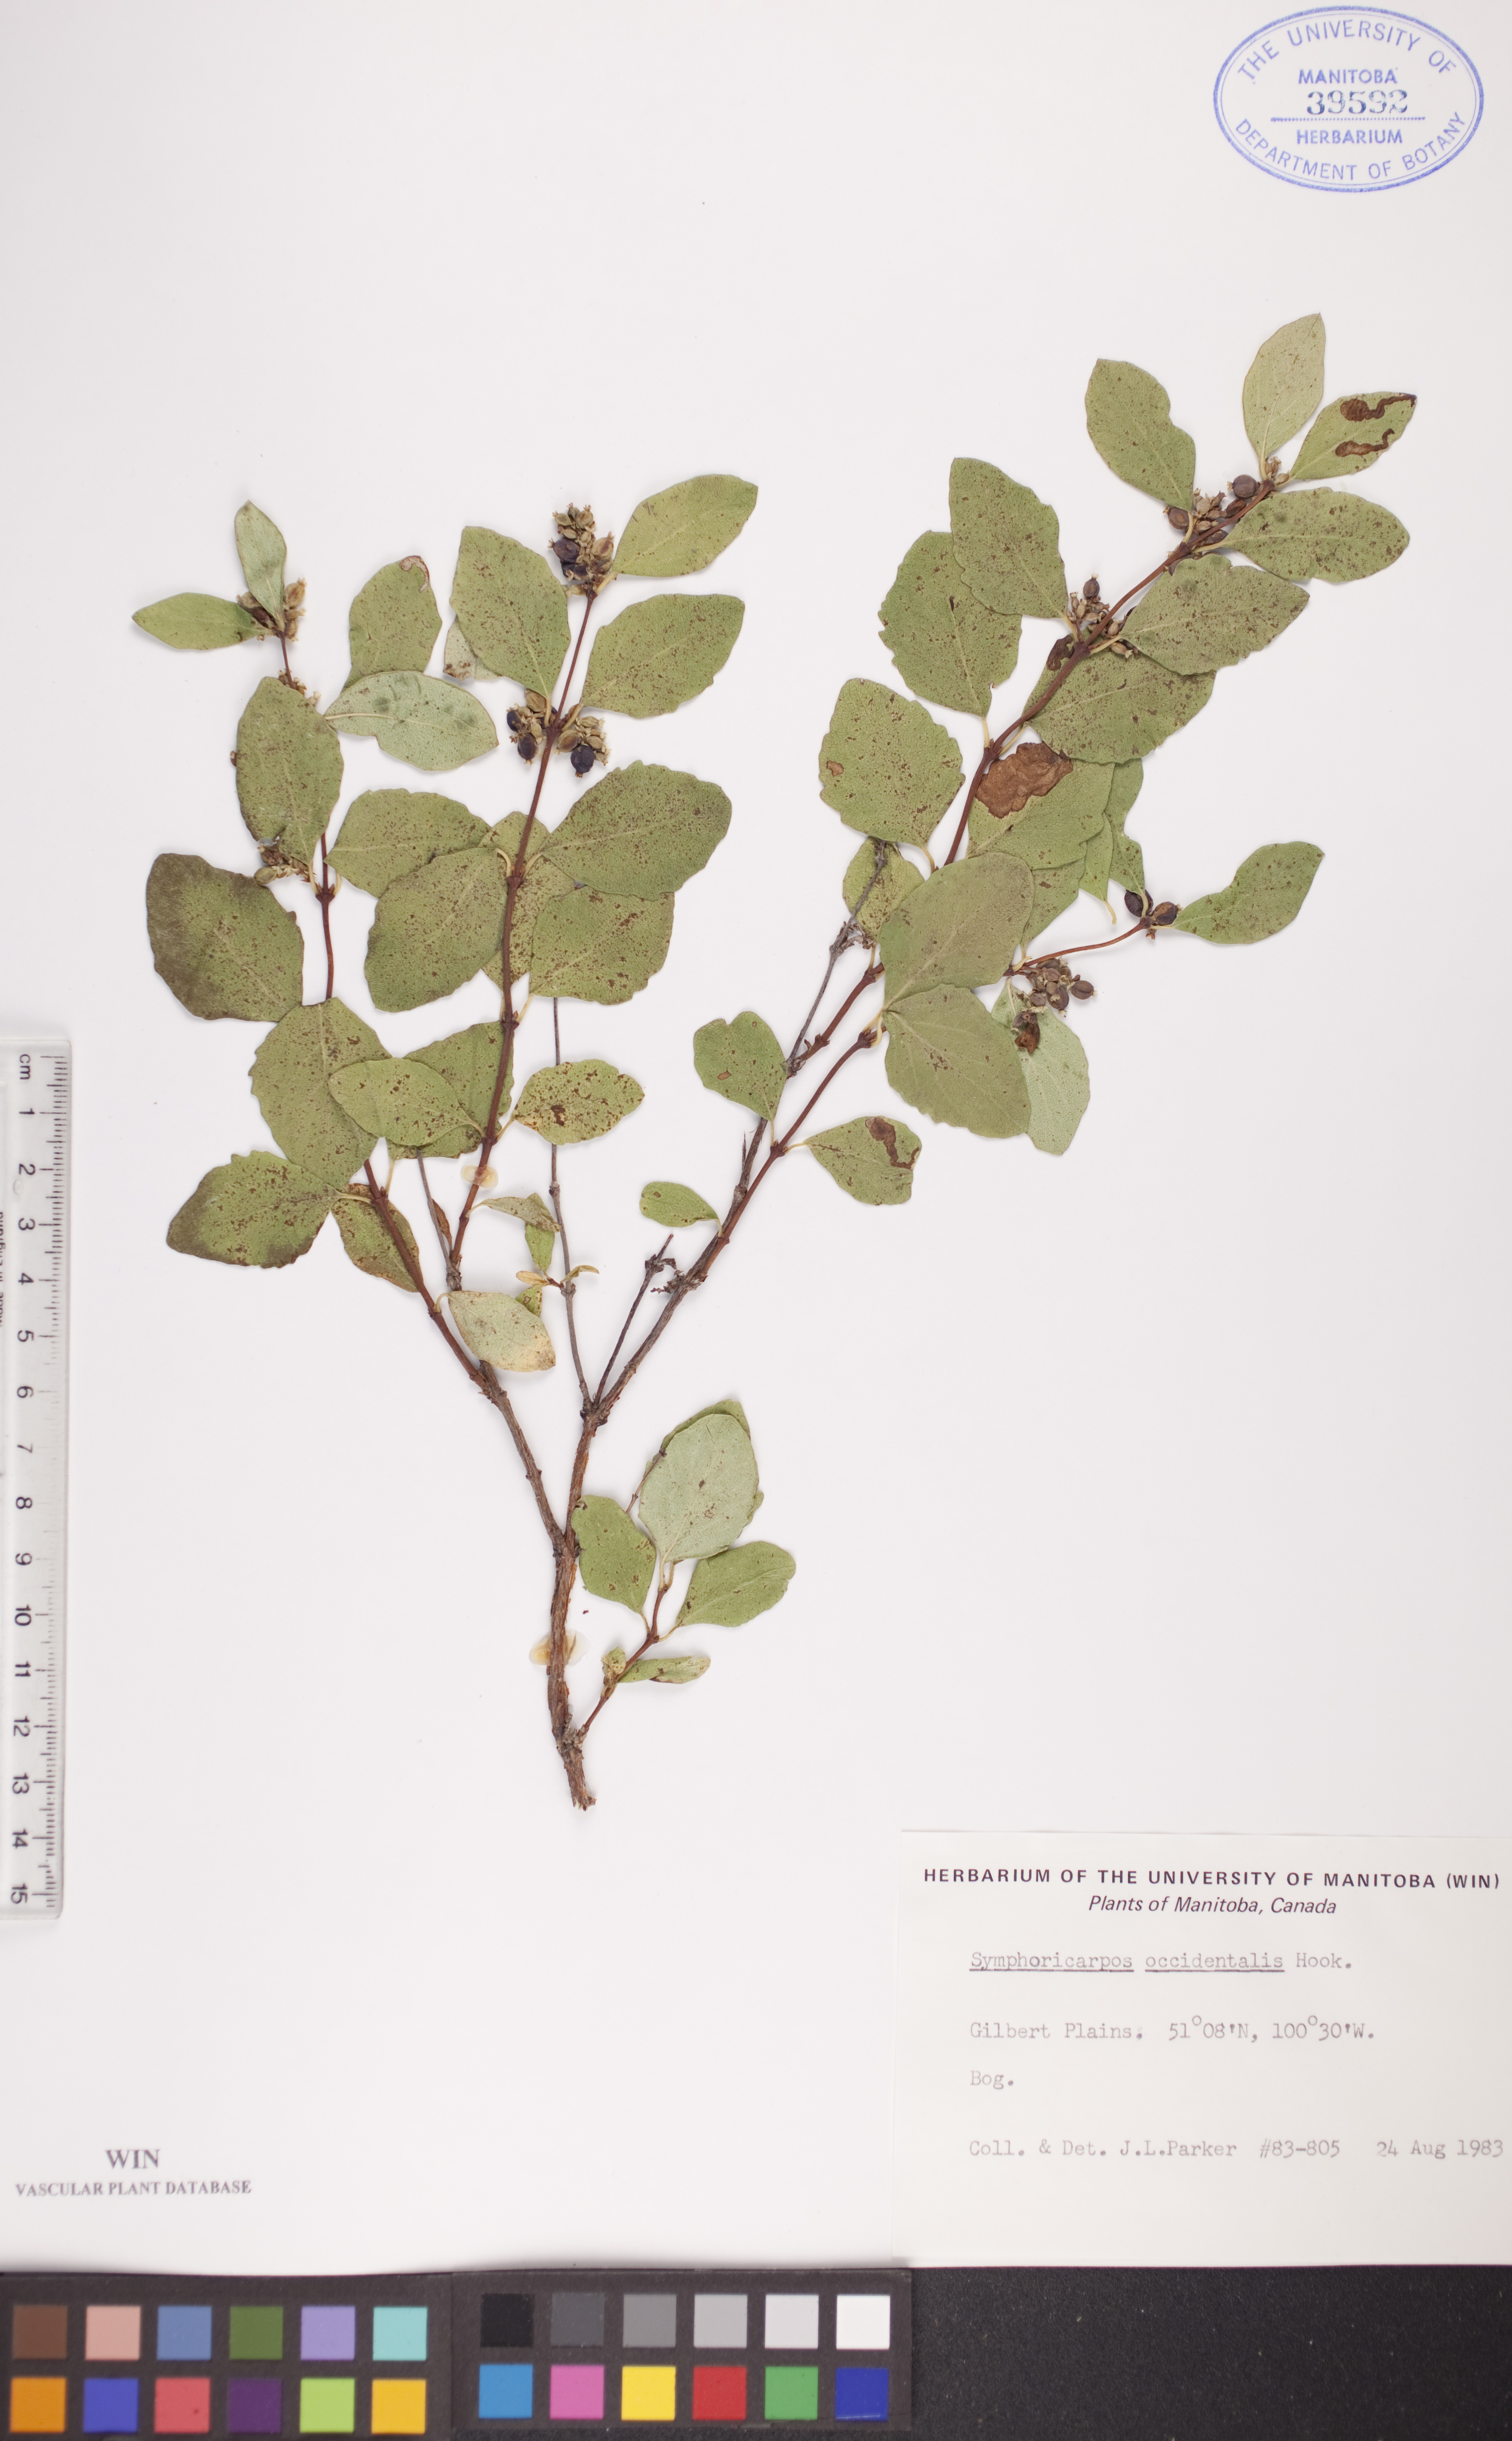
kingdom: Plantae
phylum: Tracheophyta
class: Magnoliopsida
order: Dipsacales
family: Caprifoliaceae
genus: Symphoricarpos
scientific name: Symphoricarpos occidentalis
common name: Wolfberry
